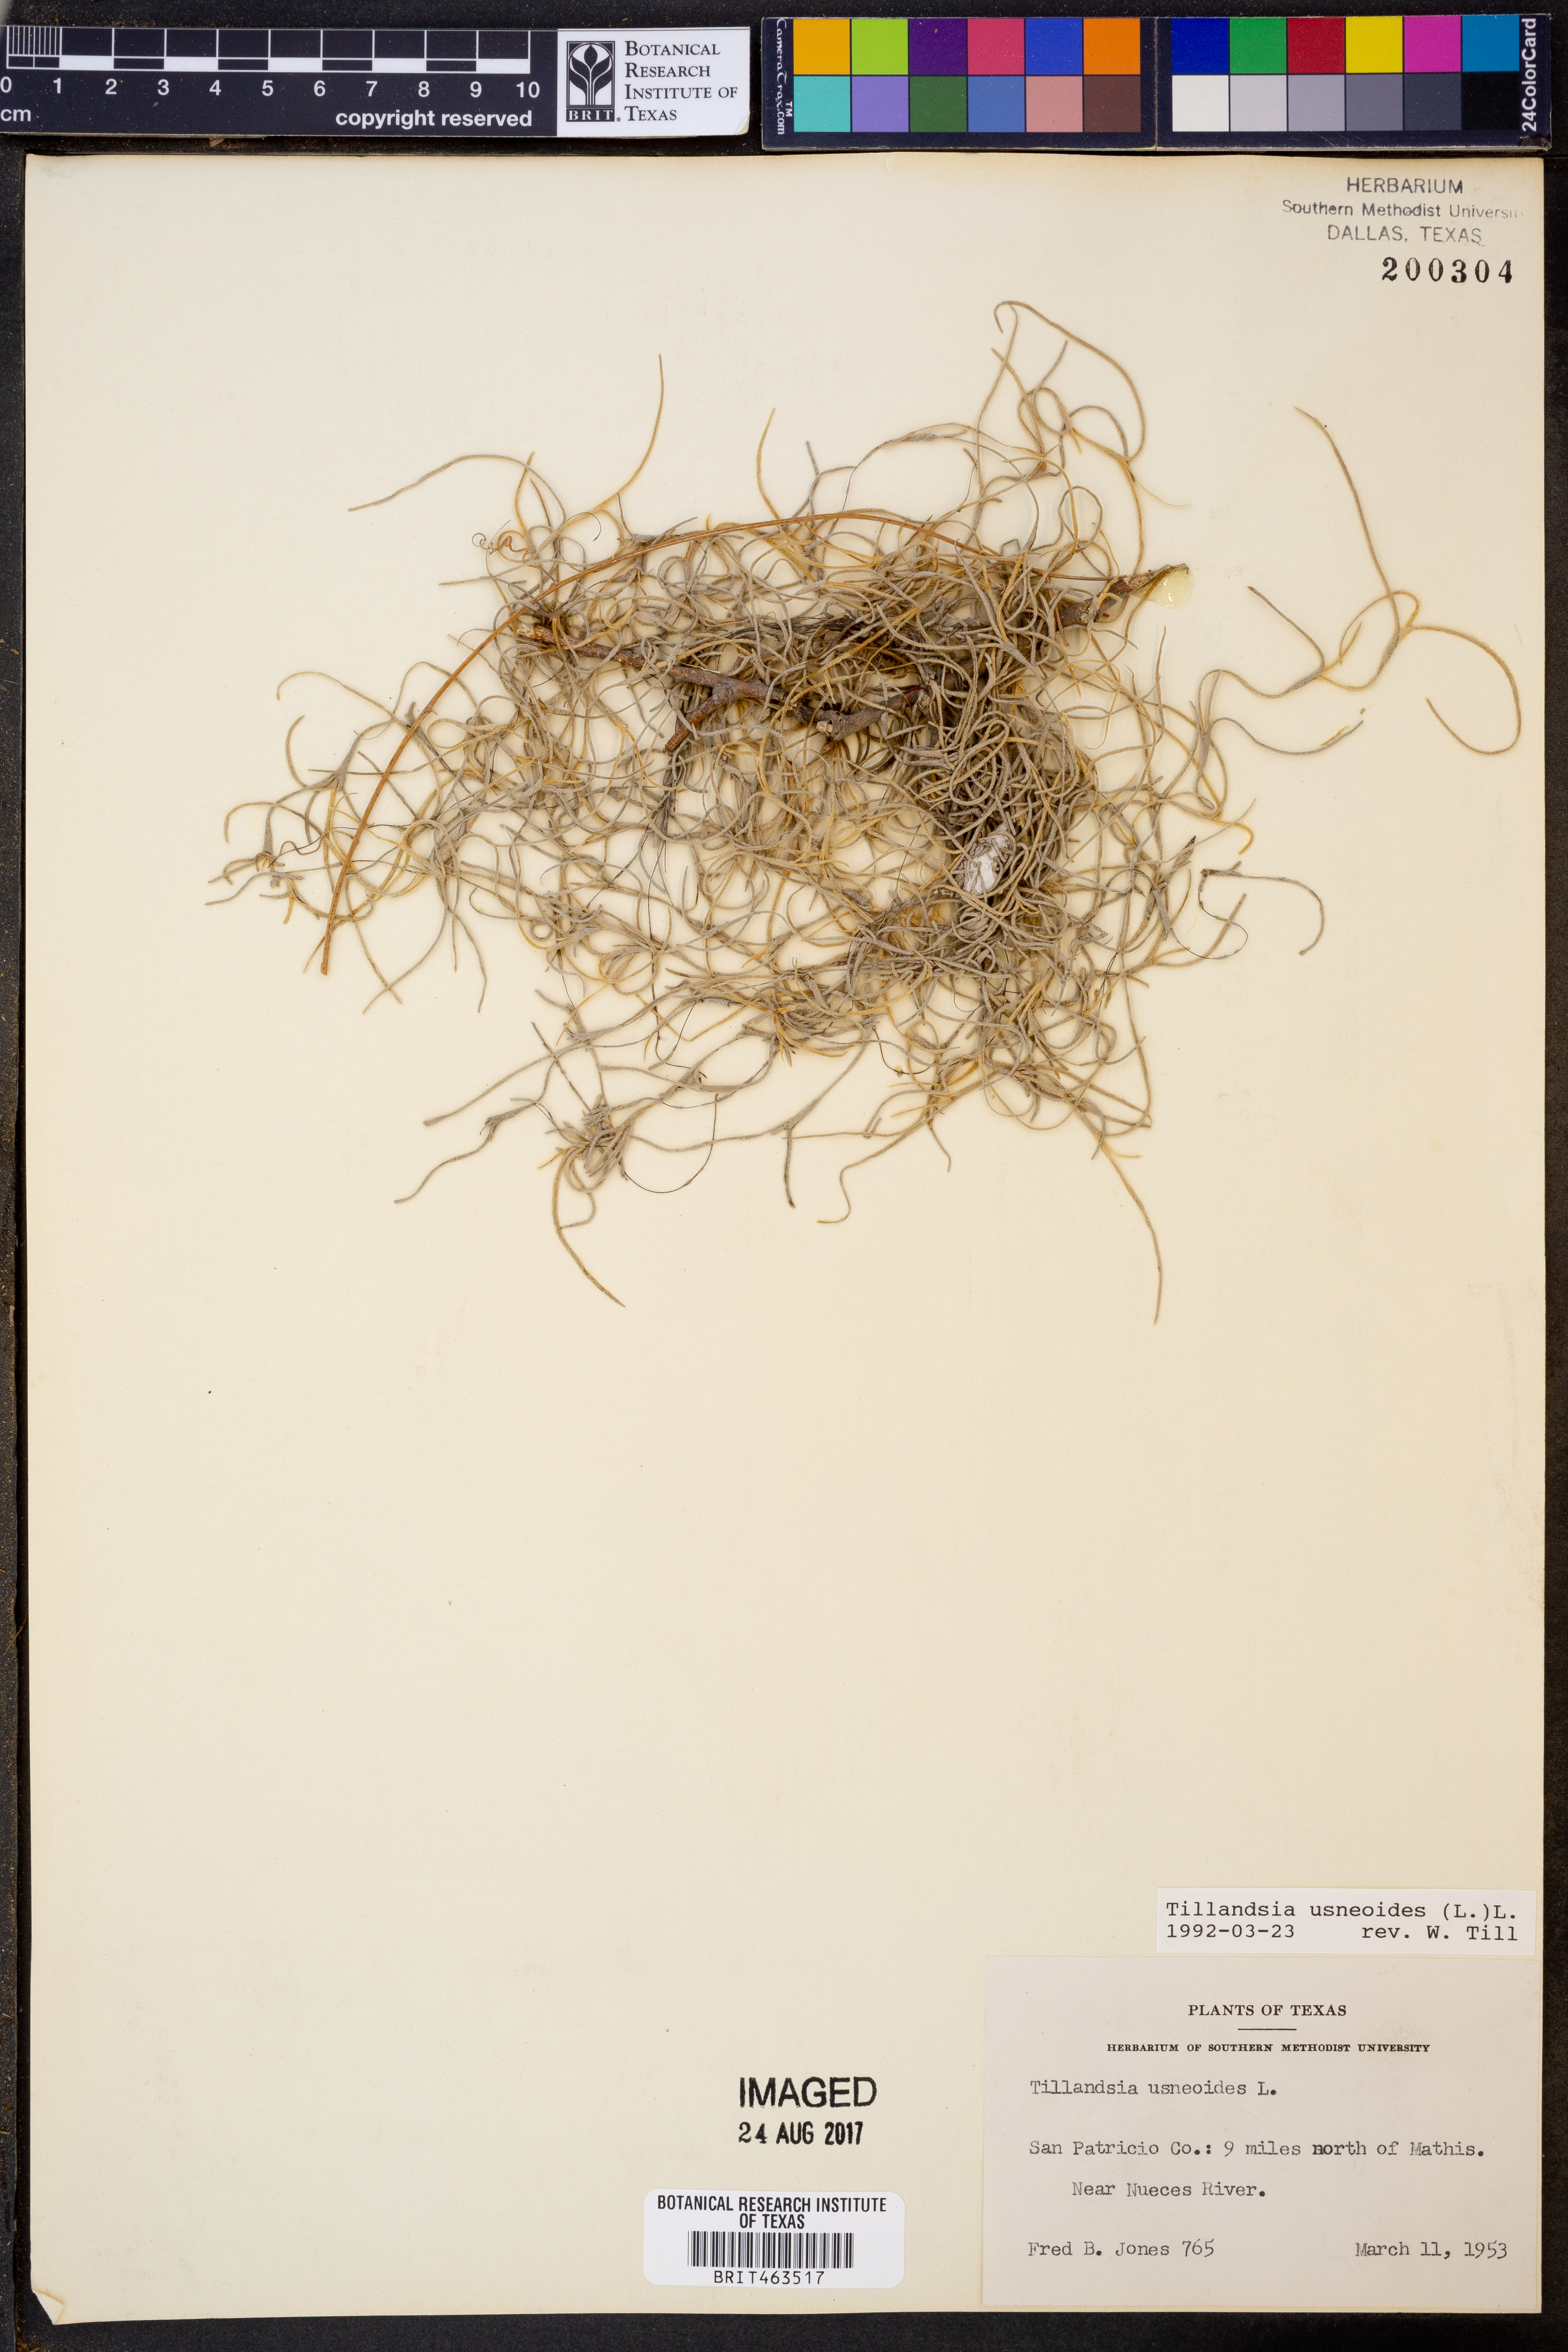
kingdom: Plantae
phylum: Tracheophyta
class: Liliopsida
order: Poales
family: Bromeliaceae
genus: Tillandsia
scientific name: Tillandsia usneoides
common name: Spanish moss
